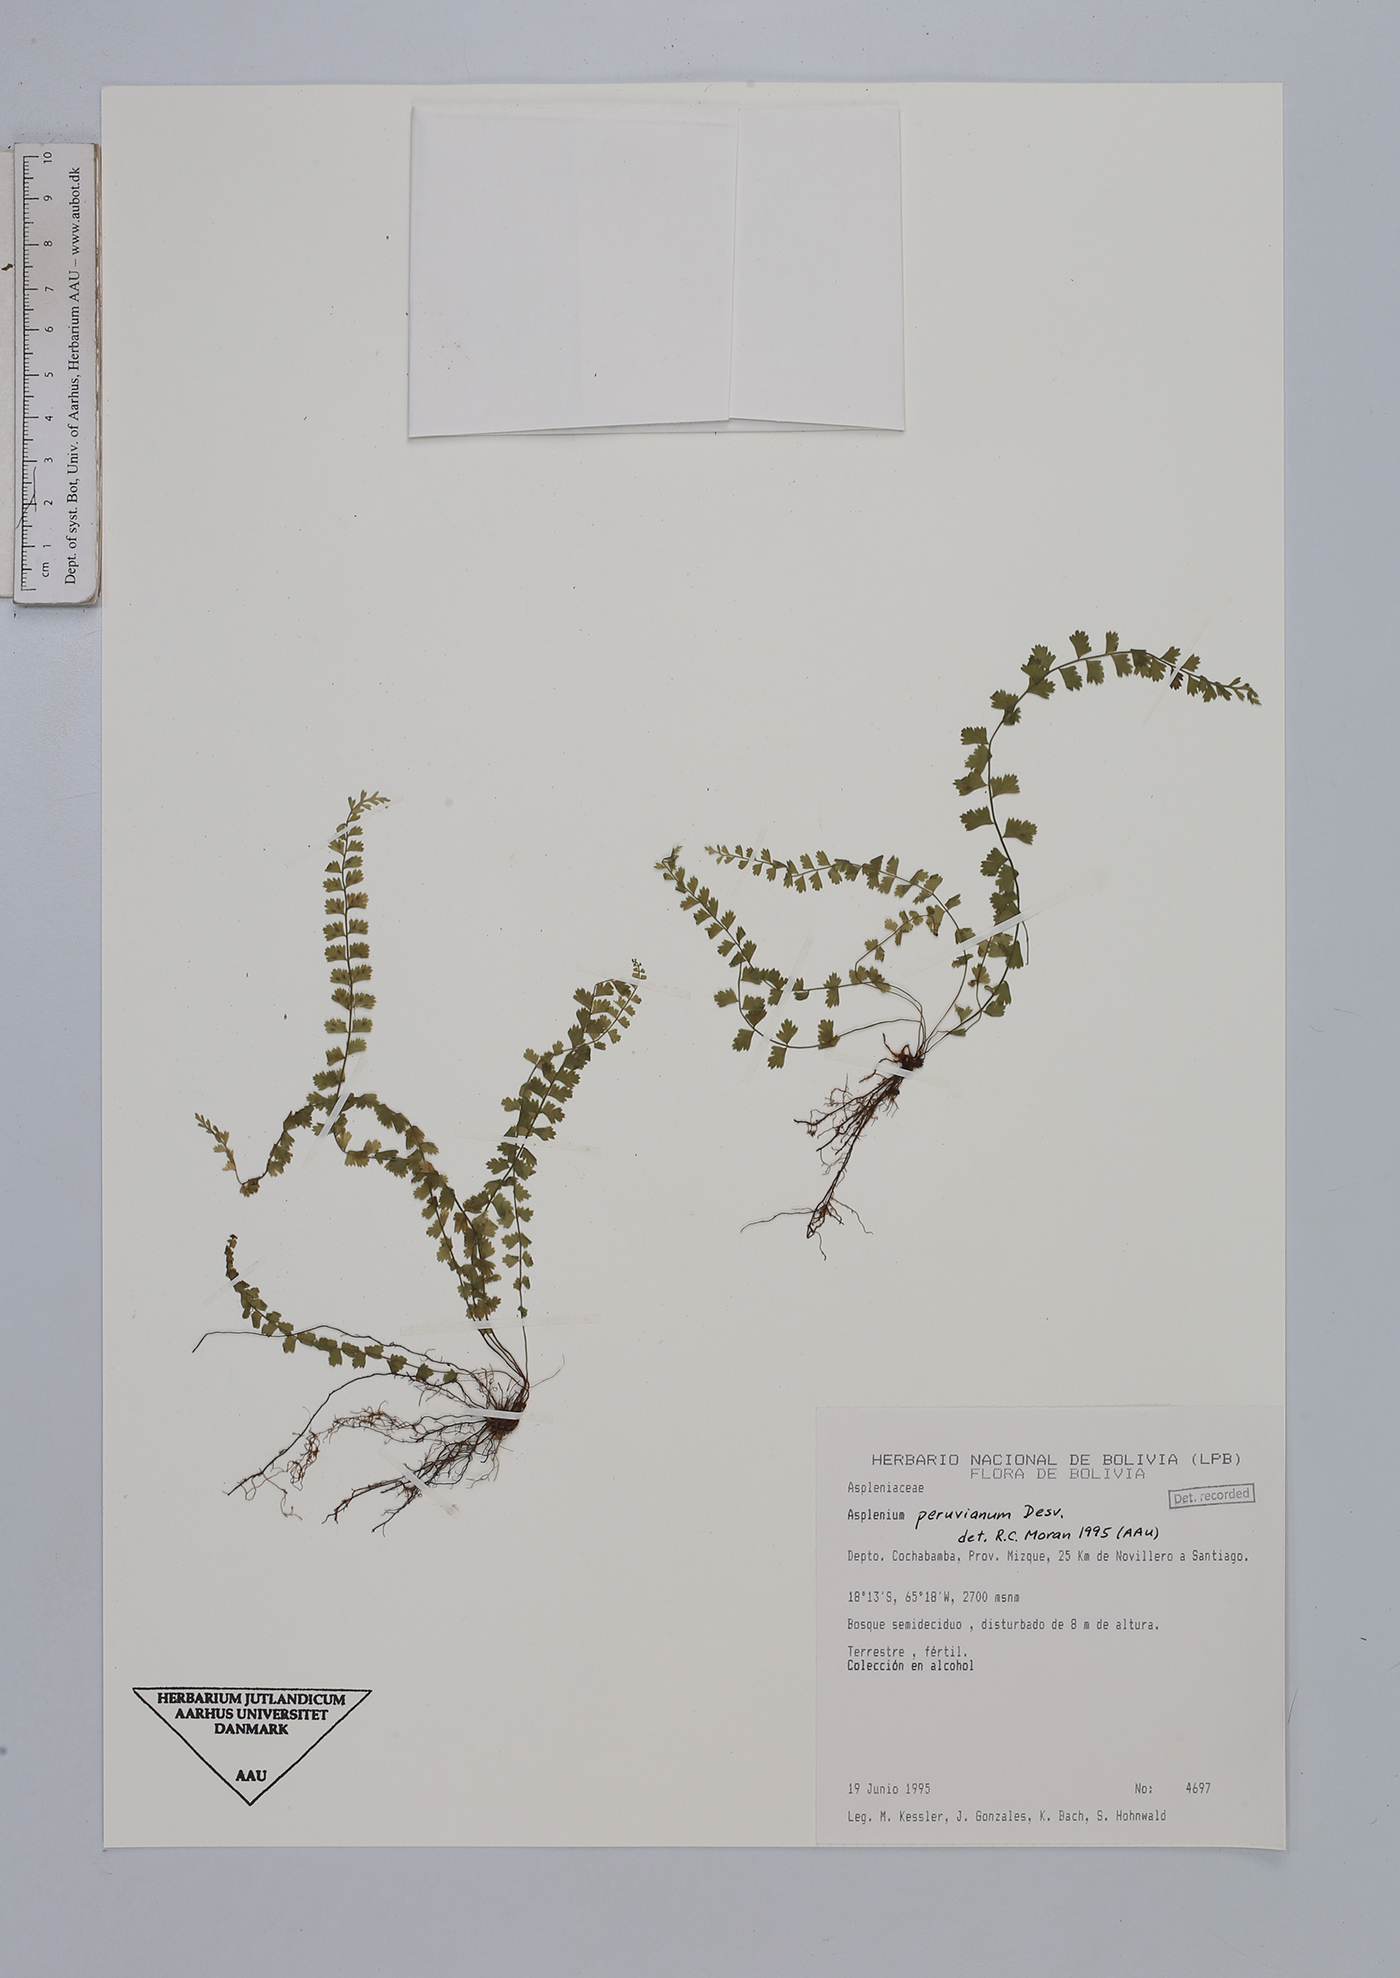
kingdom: Plantae
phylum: Tracheophyta
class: Polypodiopsida
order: Polypodiales
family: Aspleniaceae
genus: Asplenium
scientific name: Asplenium peruvianum
